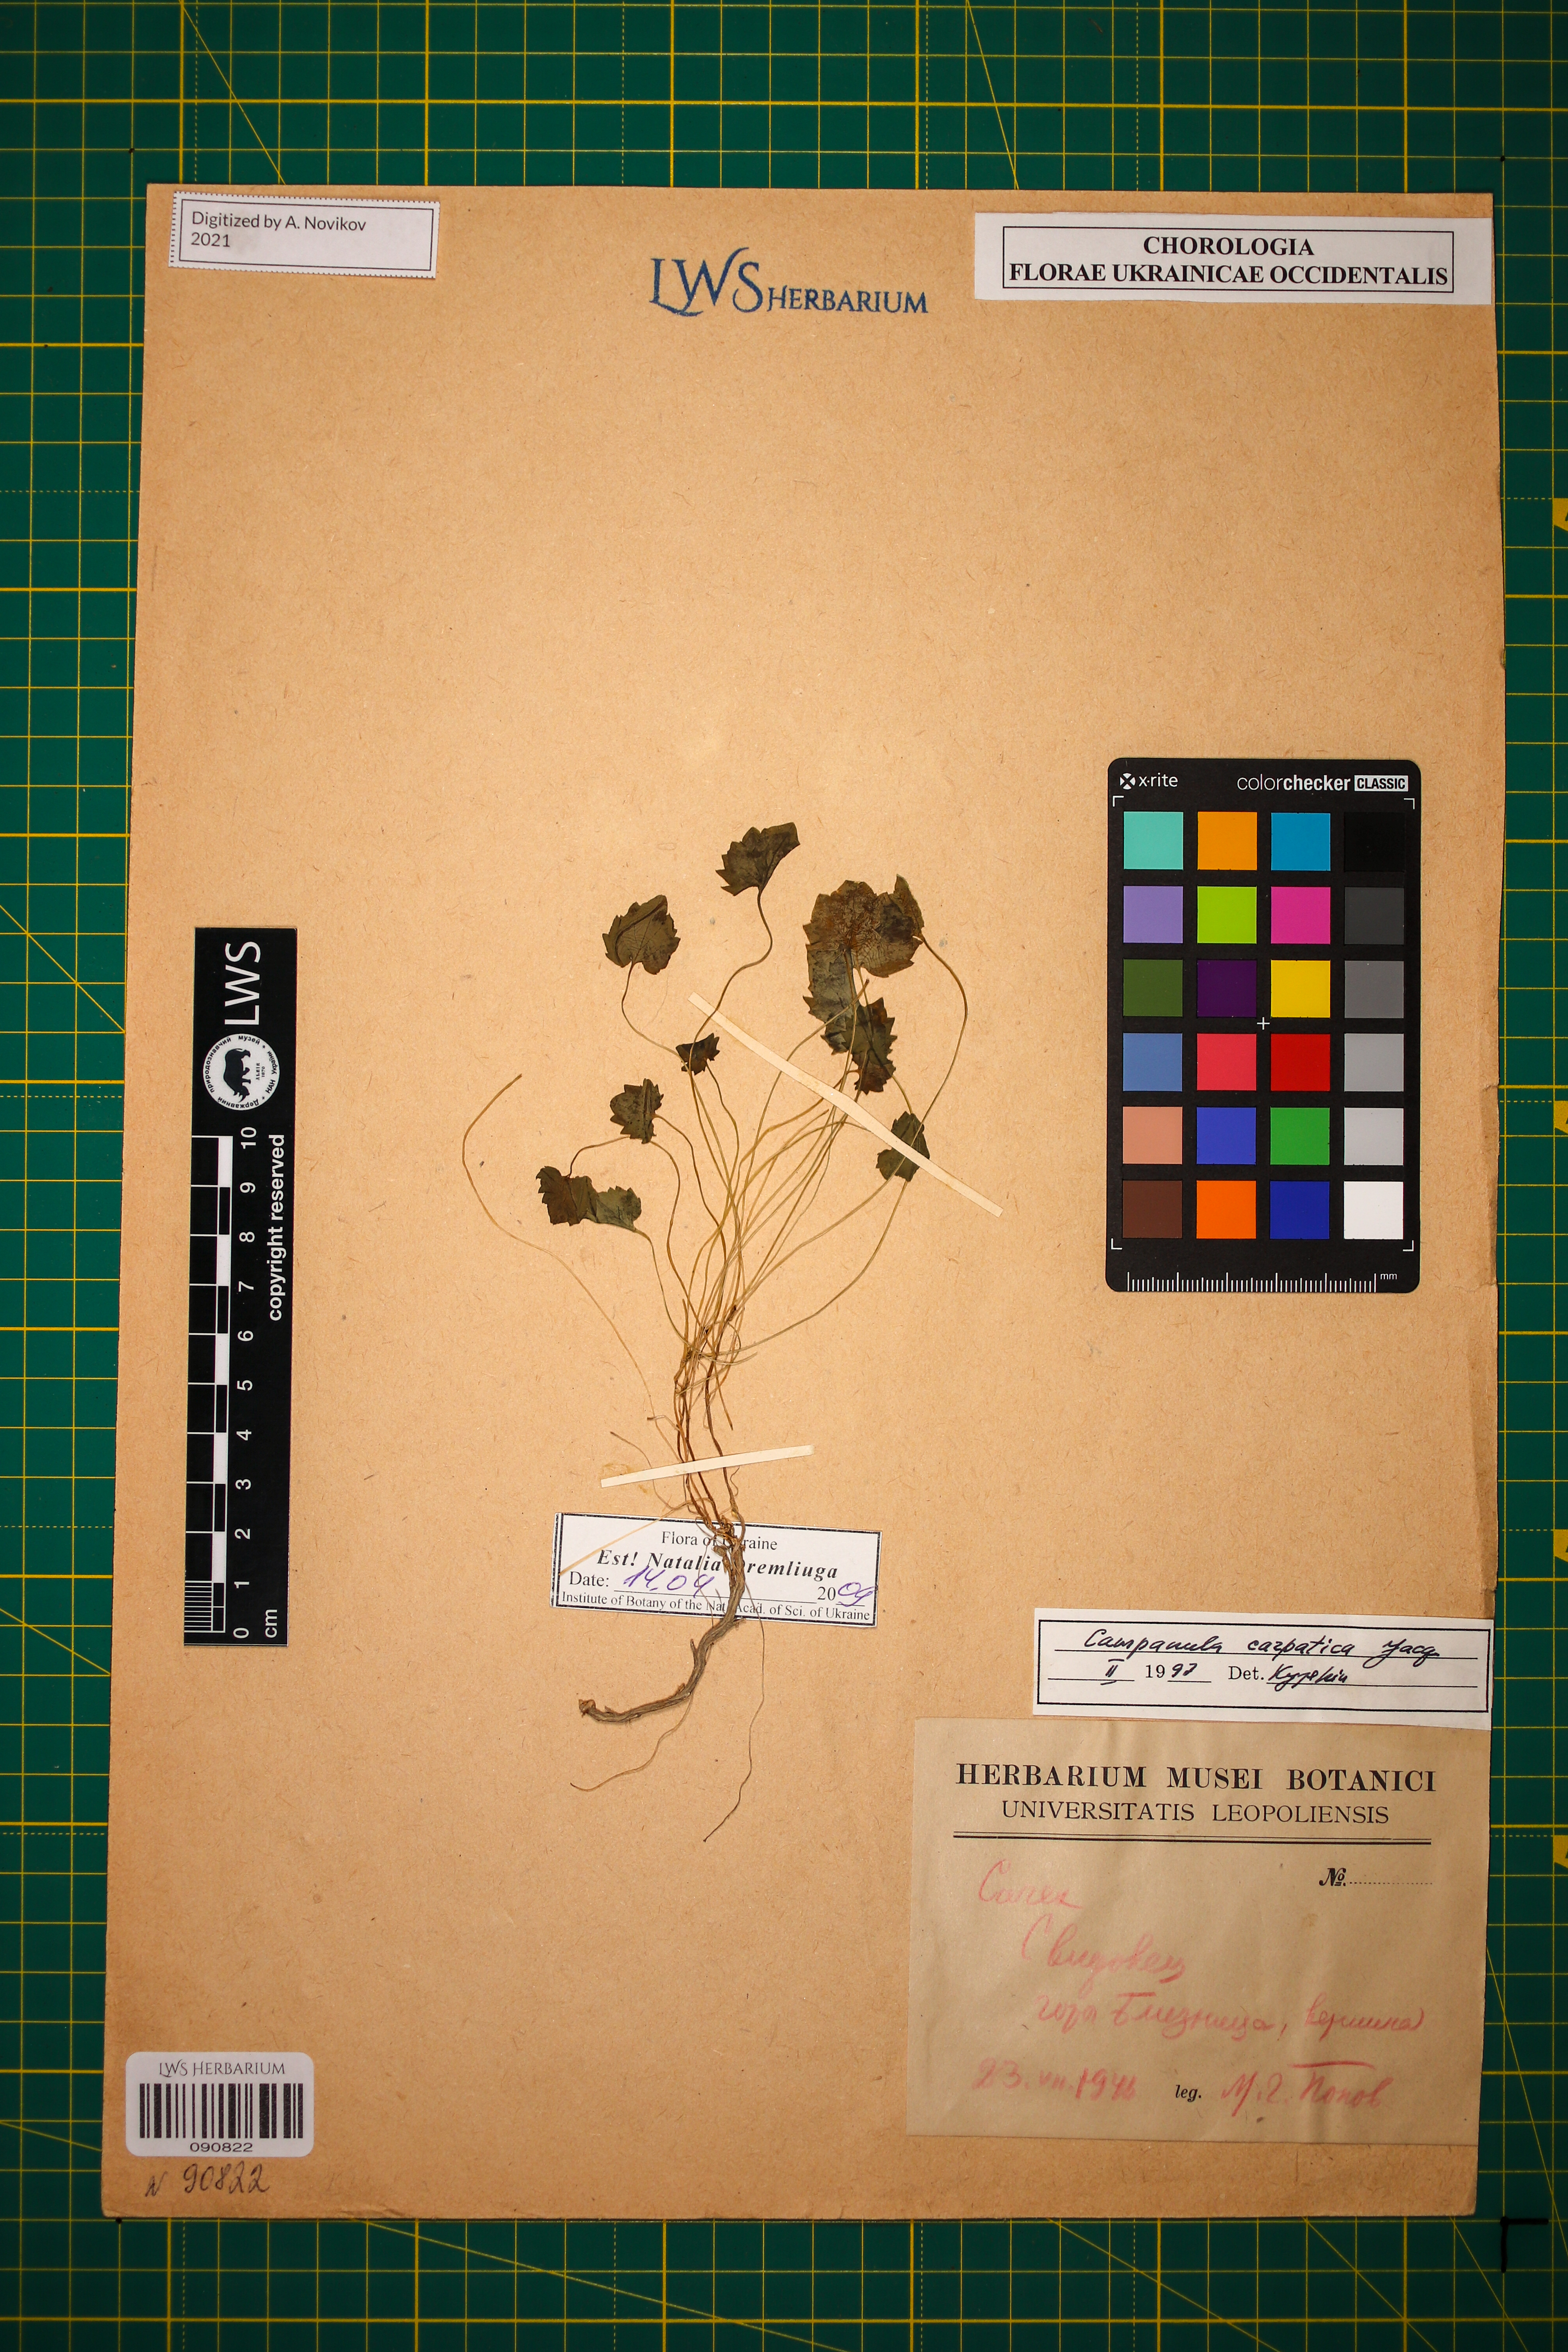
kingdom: Plantae
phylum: Tracheophyta
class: Magnoliopsida
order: Asterales
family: Campanulaceae
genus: Campanula
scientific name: Campanula carpatica
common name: Tussock bellflower
